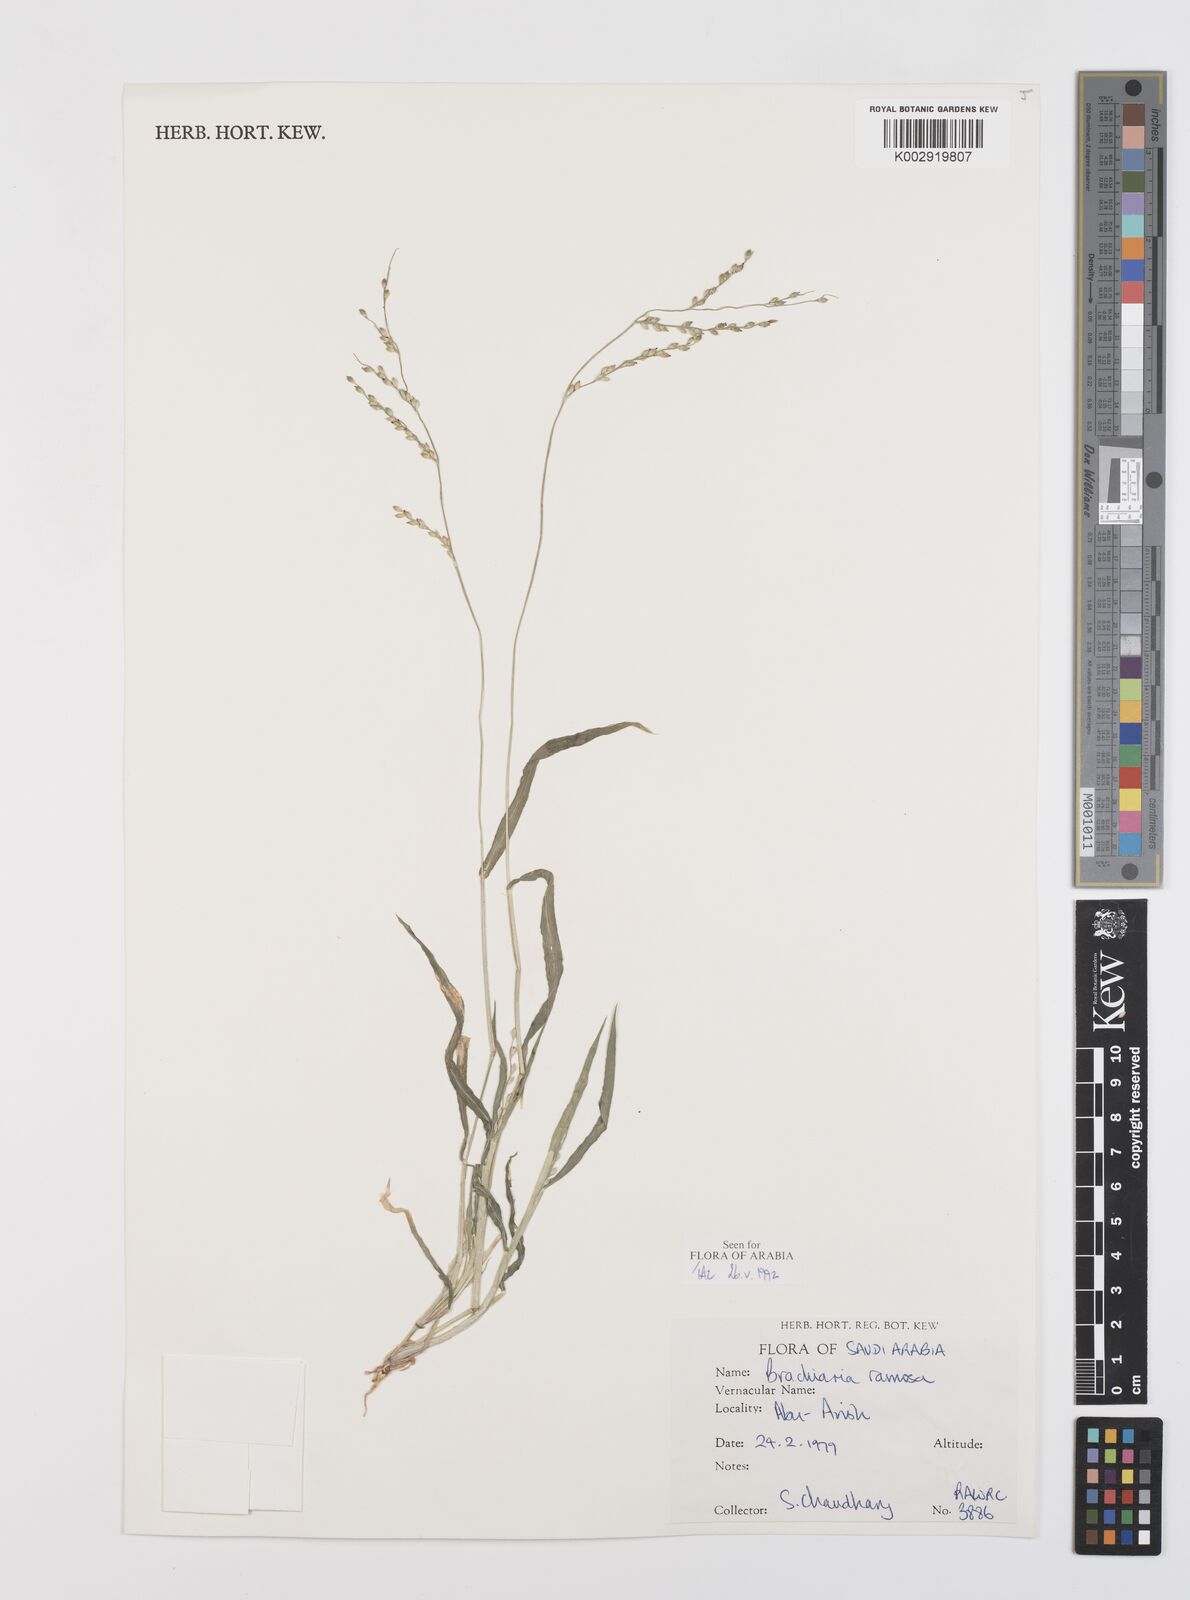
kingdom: Plantae
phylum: Tracheophyta
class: Liliopsida
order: Poales
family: Poaceae
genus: Urochloa
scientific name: Urochloa ramosa
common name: Browntop millet
